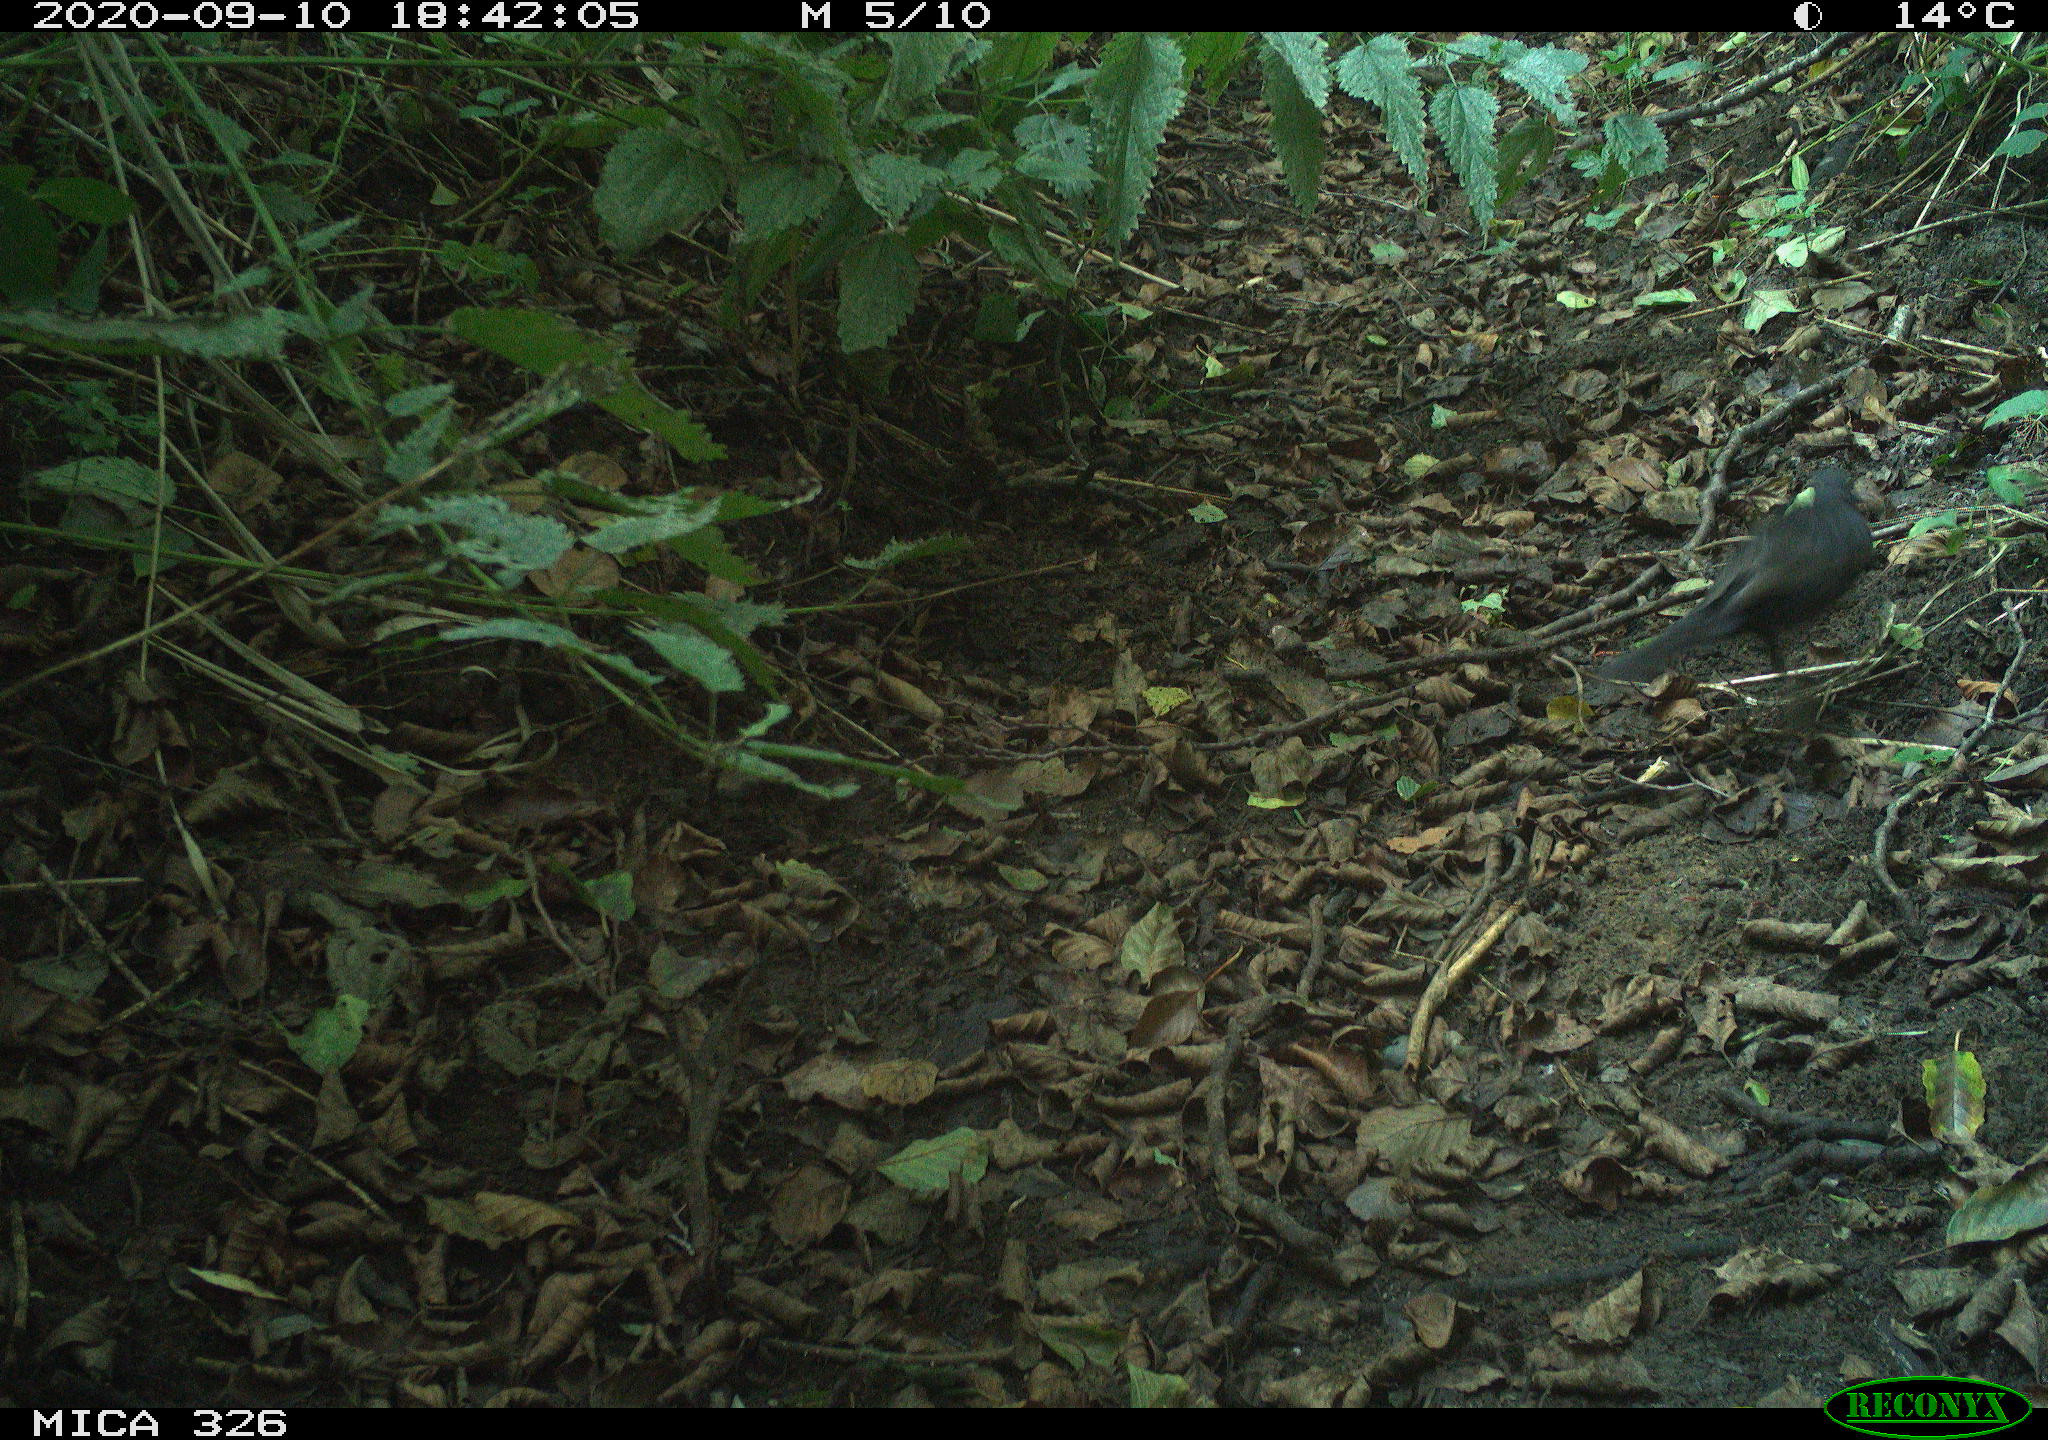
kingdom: Animalia
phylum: Chordata
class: Aves
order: Passeriformes
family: Turdidae
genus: Turdus
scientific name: Turdus merula
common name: Common blackbird
